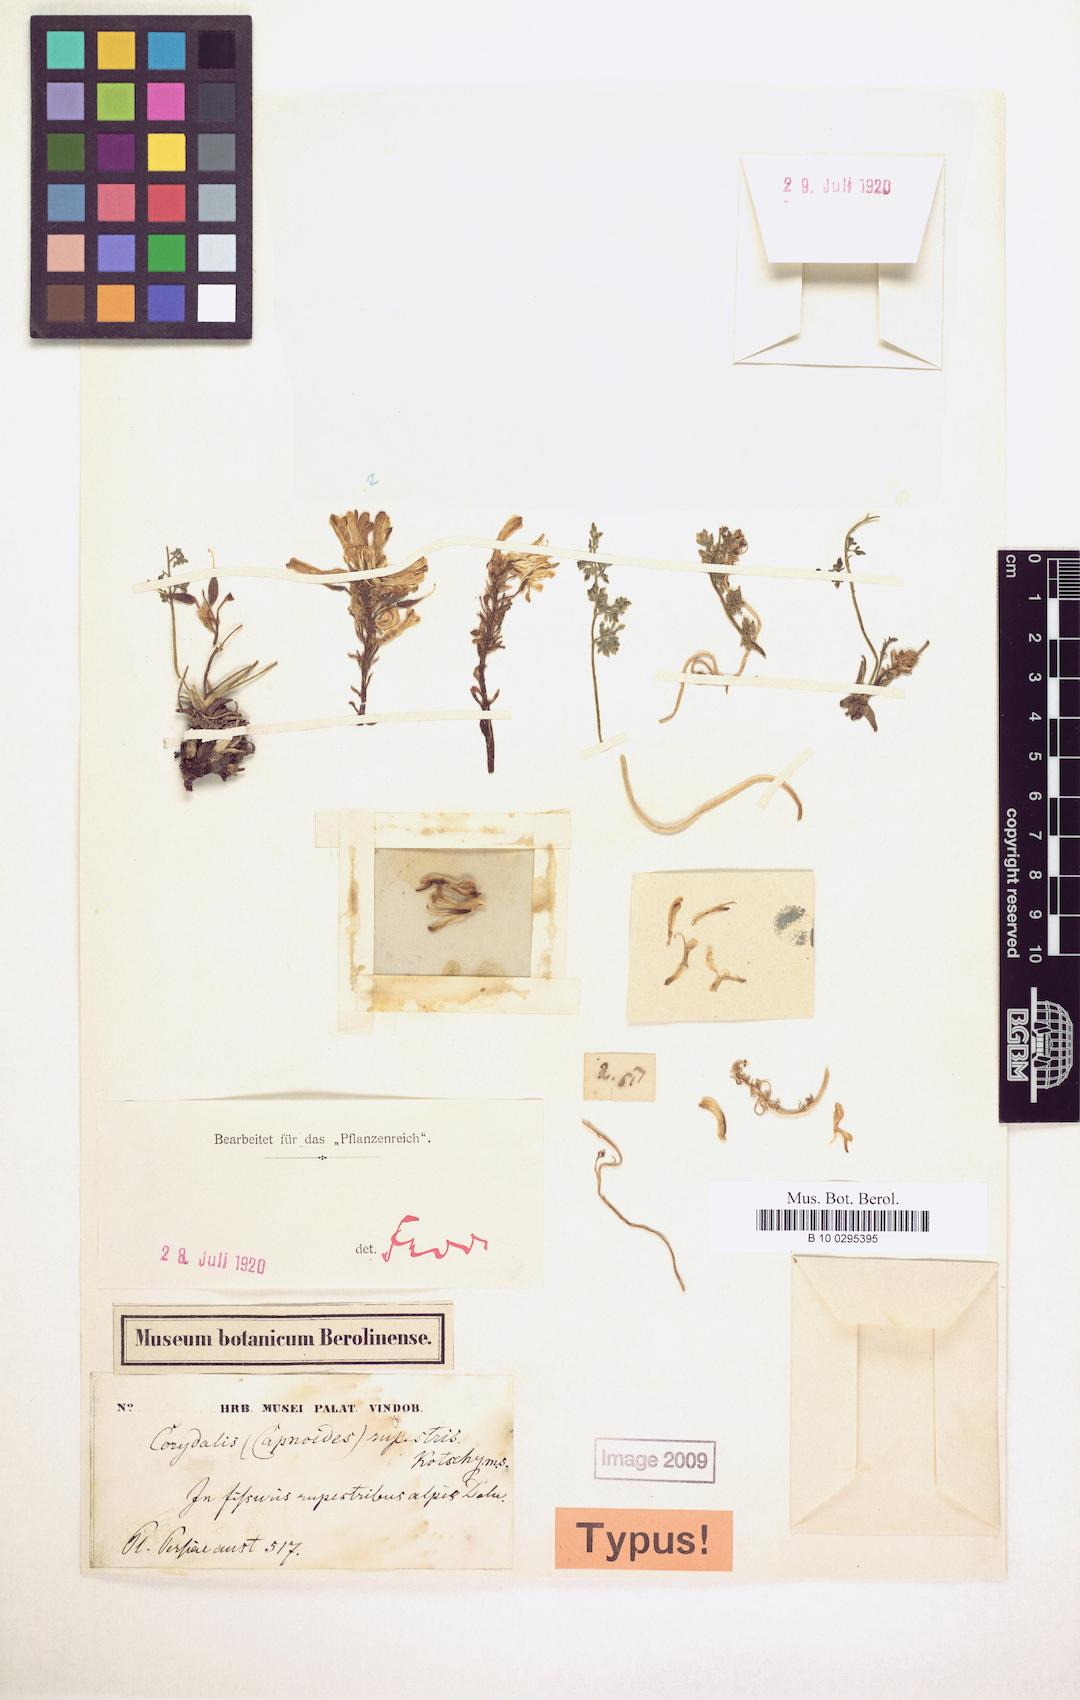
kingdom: Plantae
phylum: Tracheophyta
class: Magnoliopsida
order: Ranunculales
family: Papaveraceae
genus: Corydalis
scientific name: Corydalis rupestris
